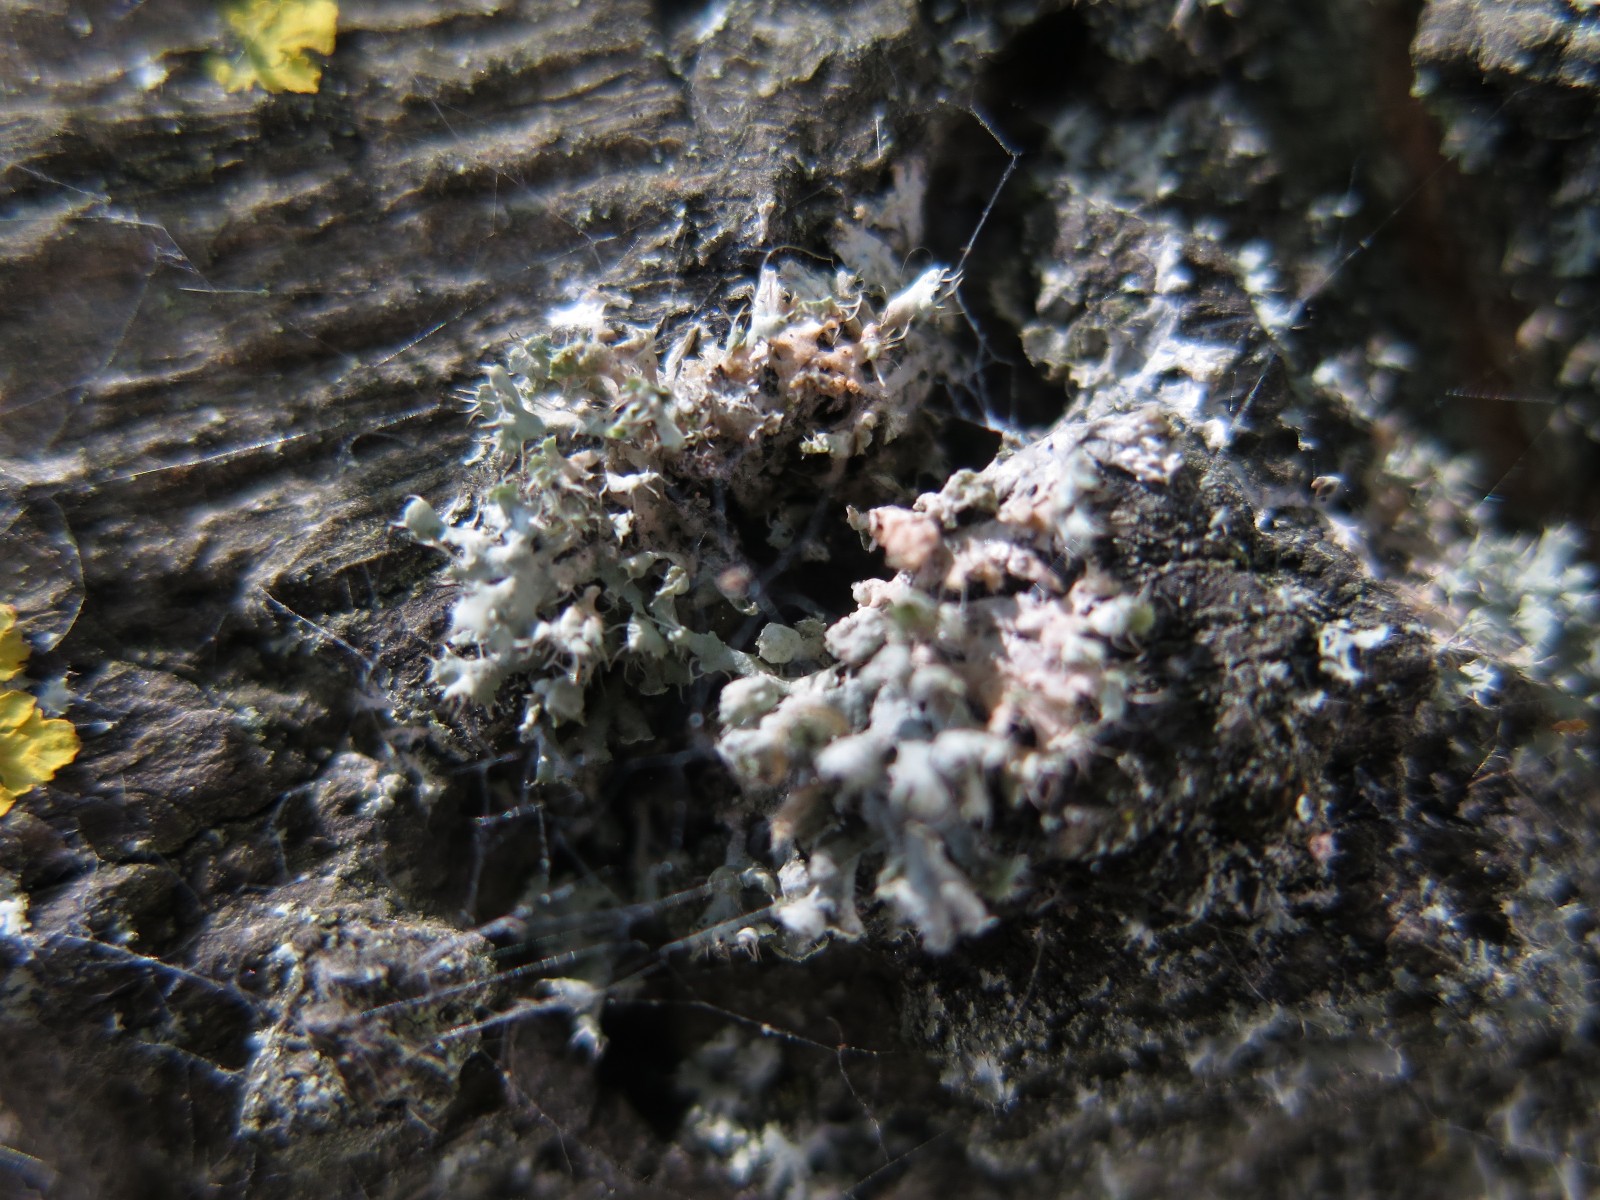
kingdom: Fungi
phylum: Basidiomycota
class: Agaricomycetes
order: Corticiales
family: Corticiaceae
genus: Erythricium
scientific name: Erythricium aurantiacum
